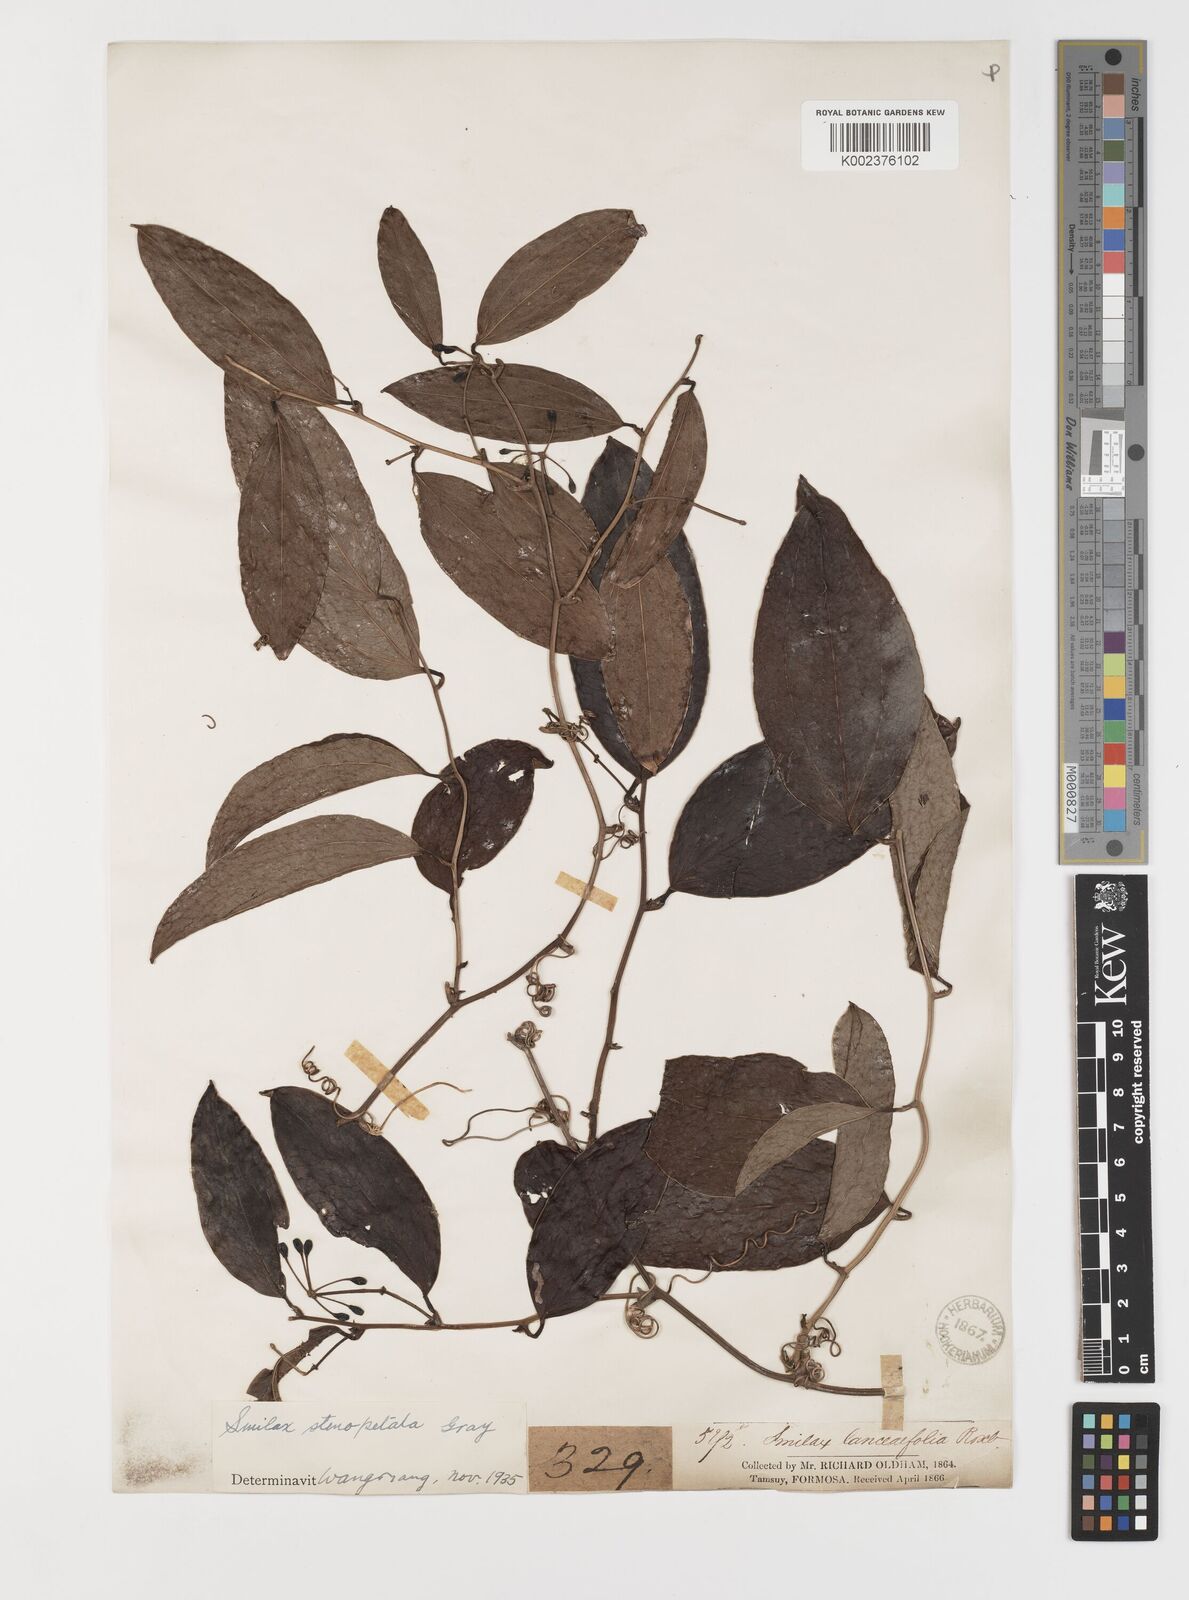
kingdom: Plantae
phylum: Tracheophyta
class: Liliopsida
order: Liliales
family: Smilacaceae
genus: Smilax
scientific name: Smilax bracteata
